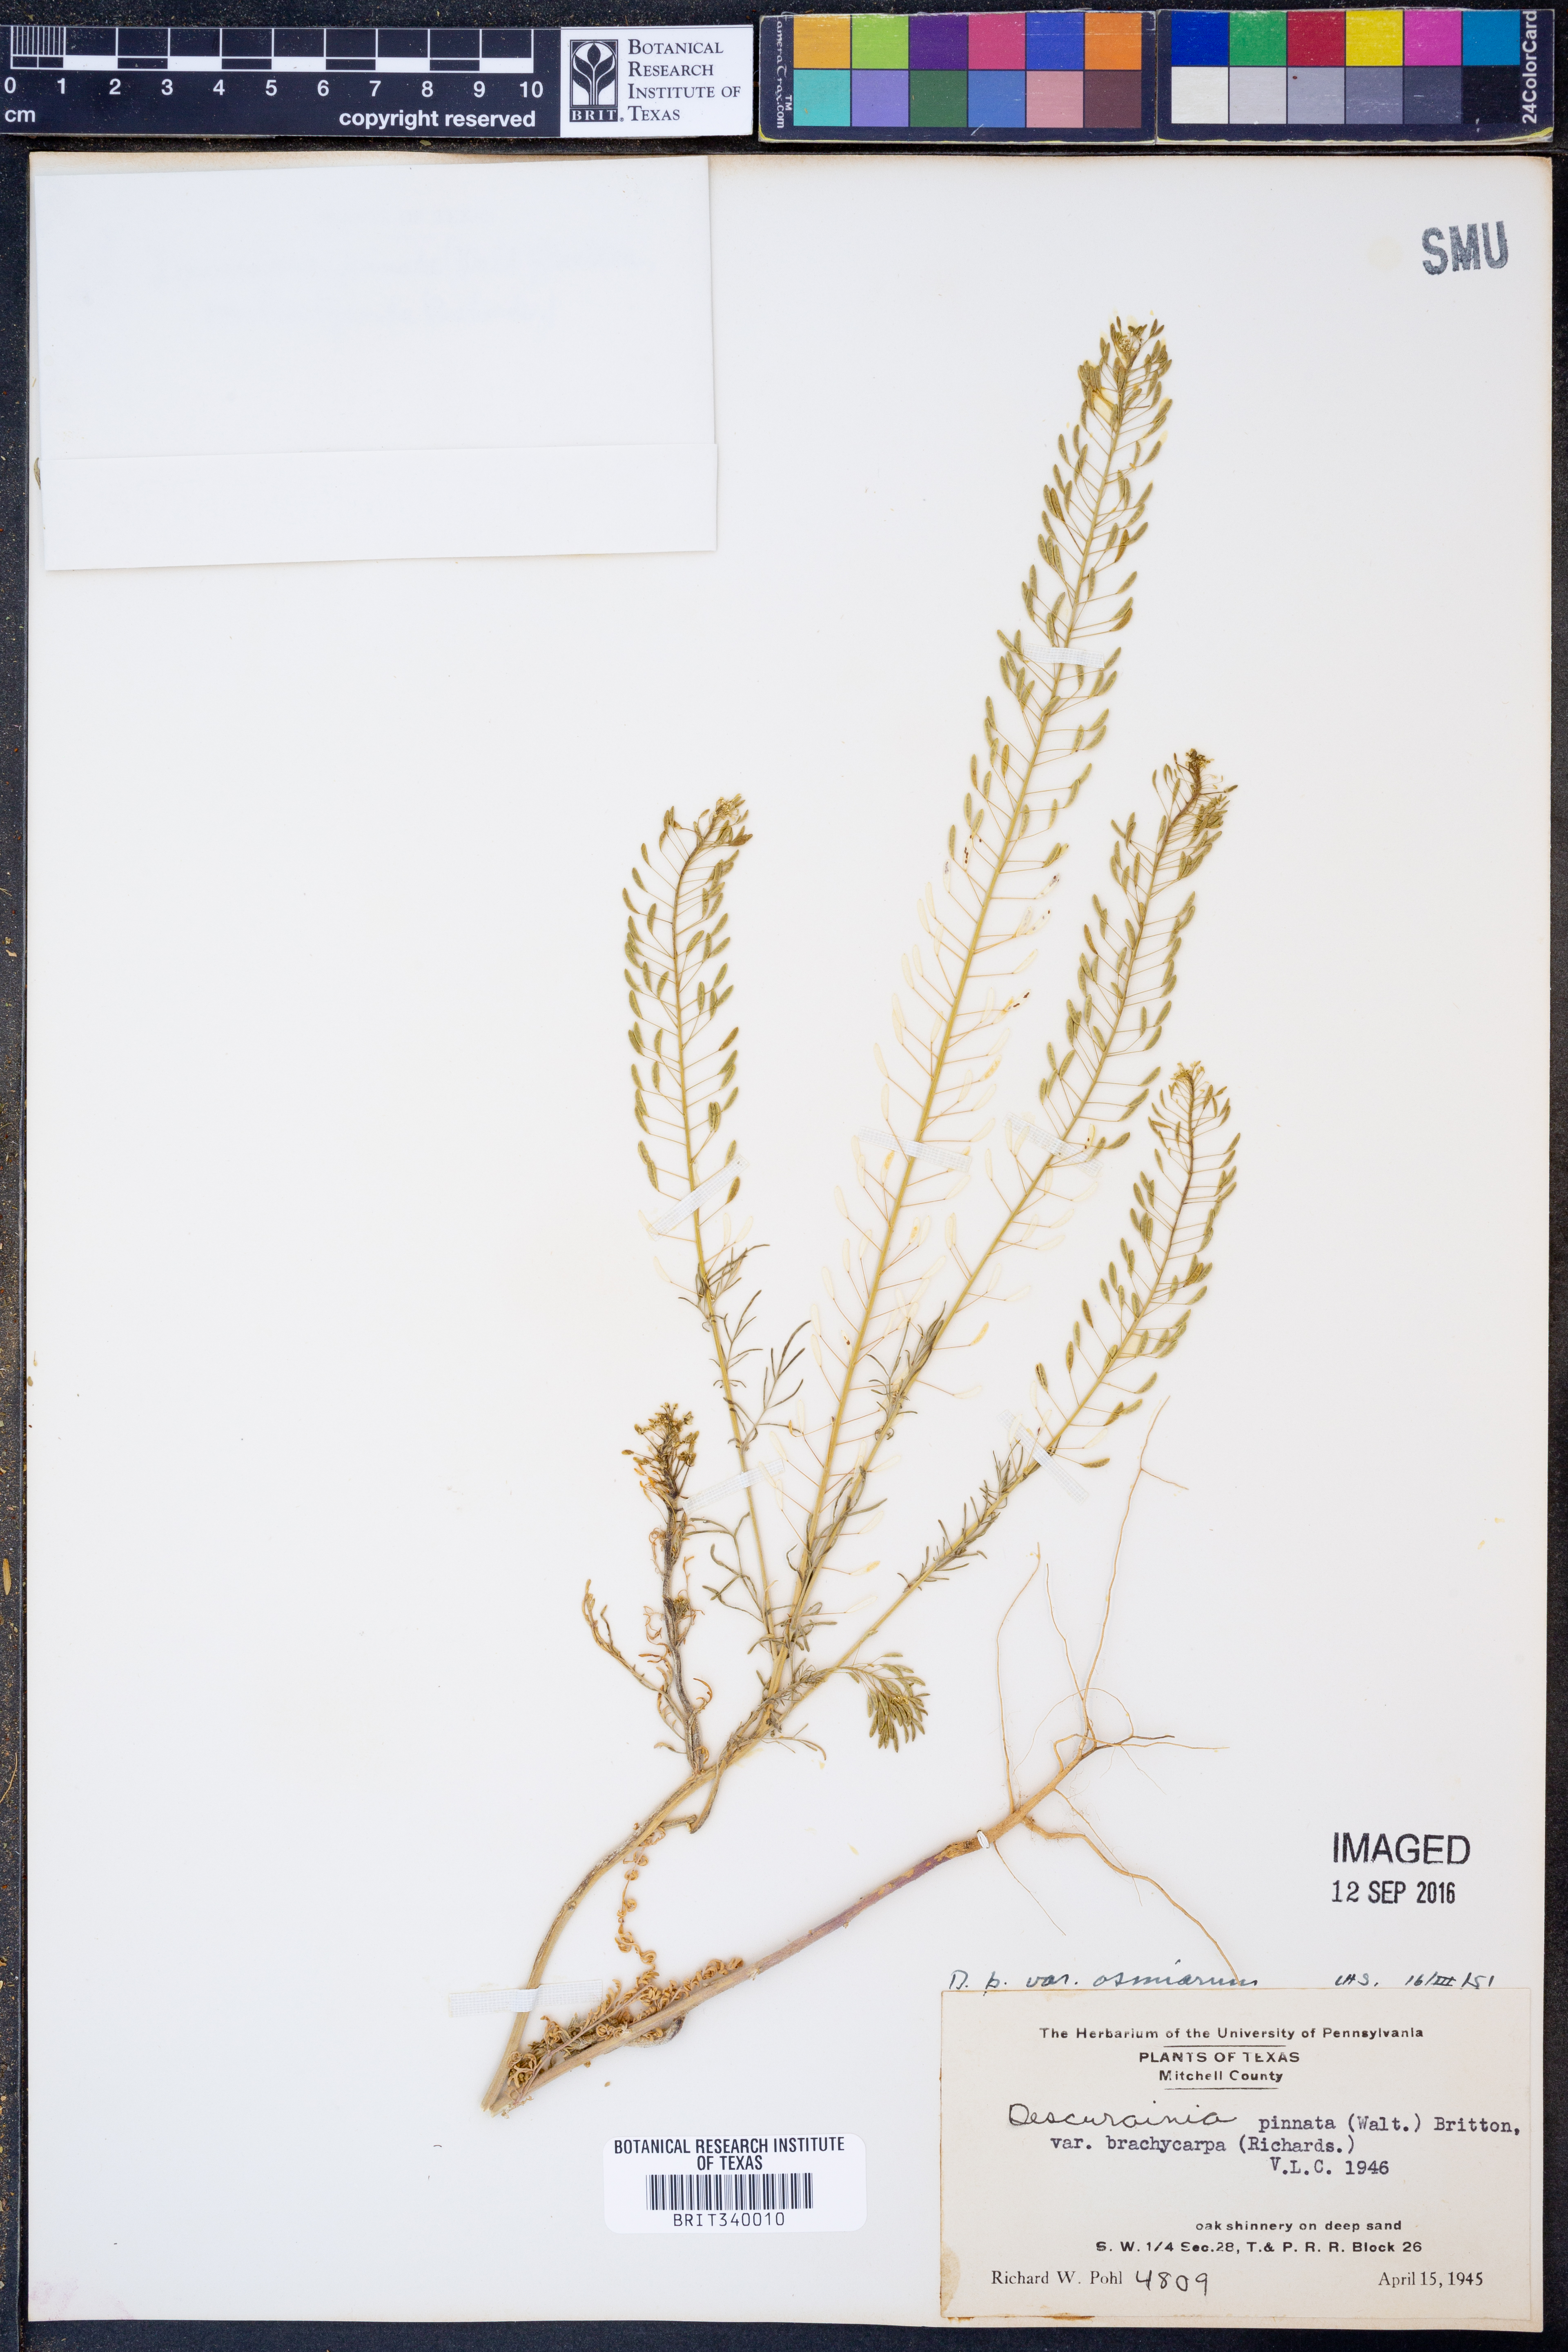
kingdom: Plantae
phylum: Tracheophyta
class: Magnoliopsida
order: Brassicales
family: Brassicaceae
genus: Descurainia
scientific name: Descurainia pinnata
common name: Western tansy mustard
